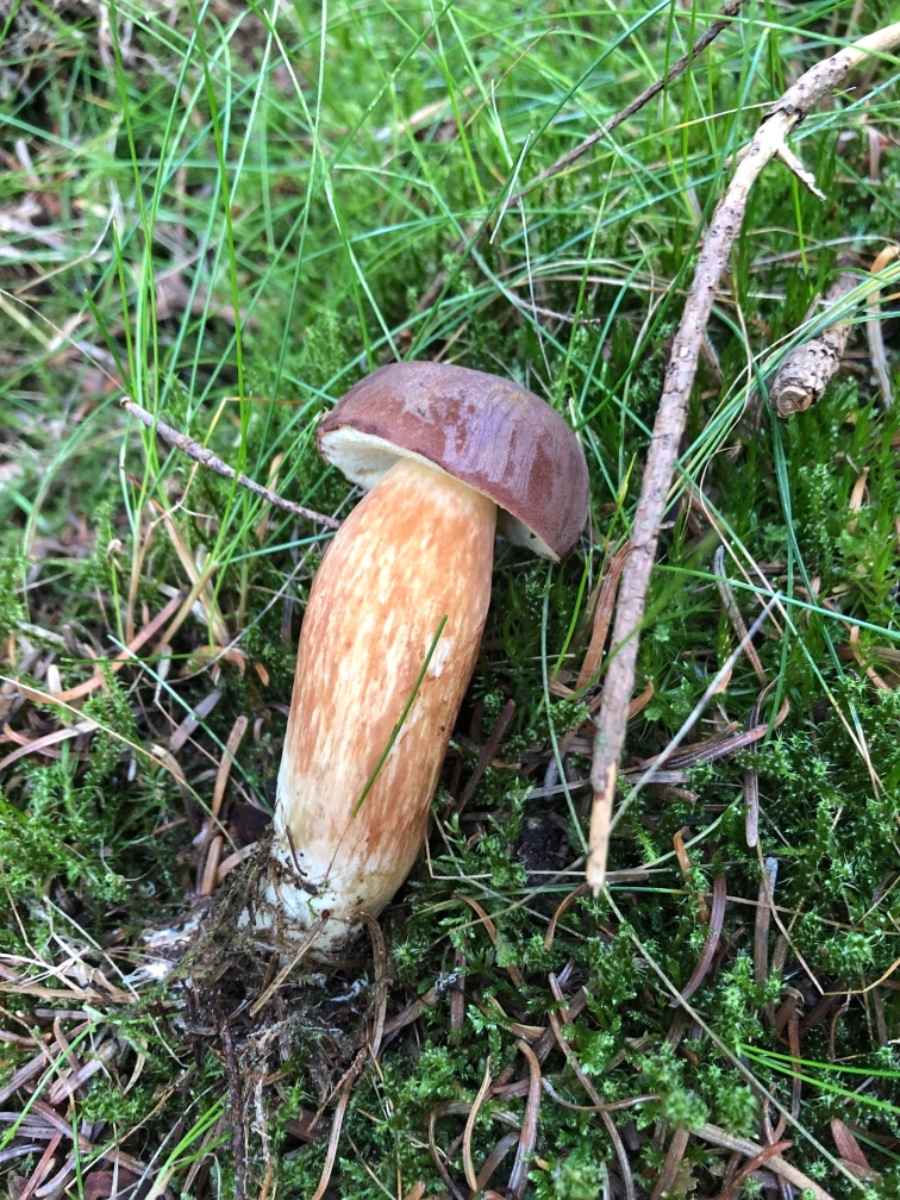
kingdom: Fungi
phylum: Basidiomycota
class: Agaricomycetes
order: Boletales
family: Boletaceae
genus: Imleria
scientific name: Imleria badia
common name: brunstokket rørhat
